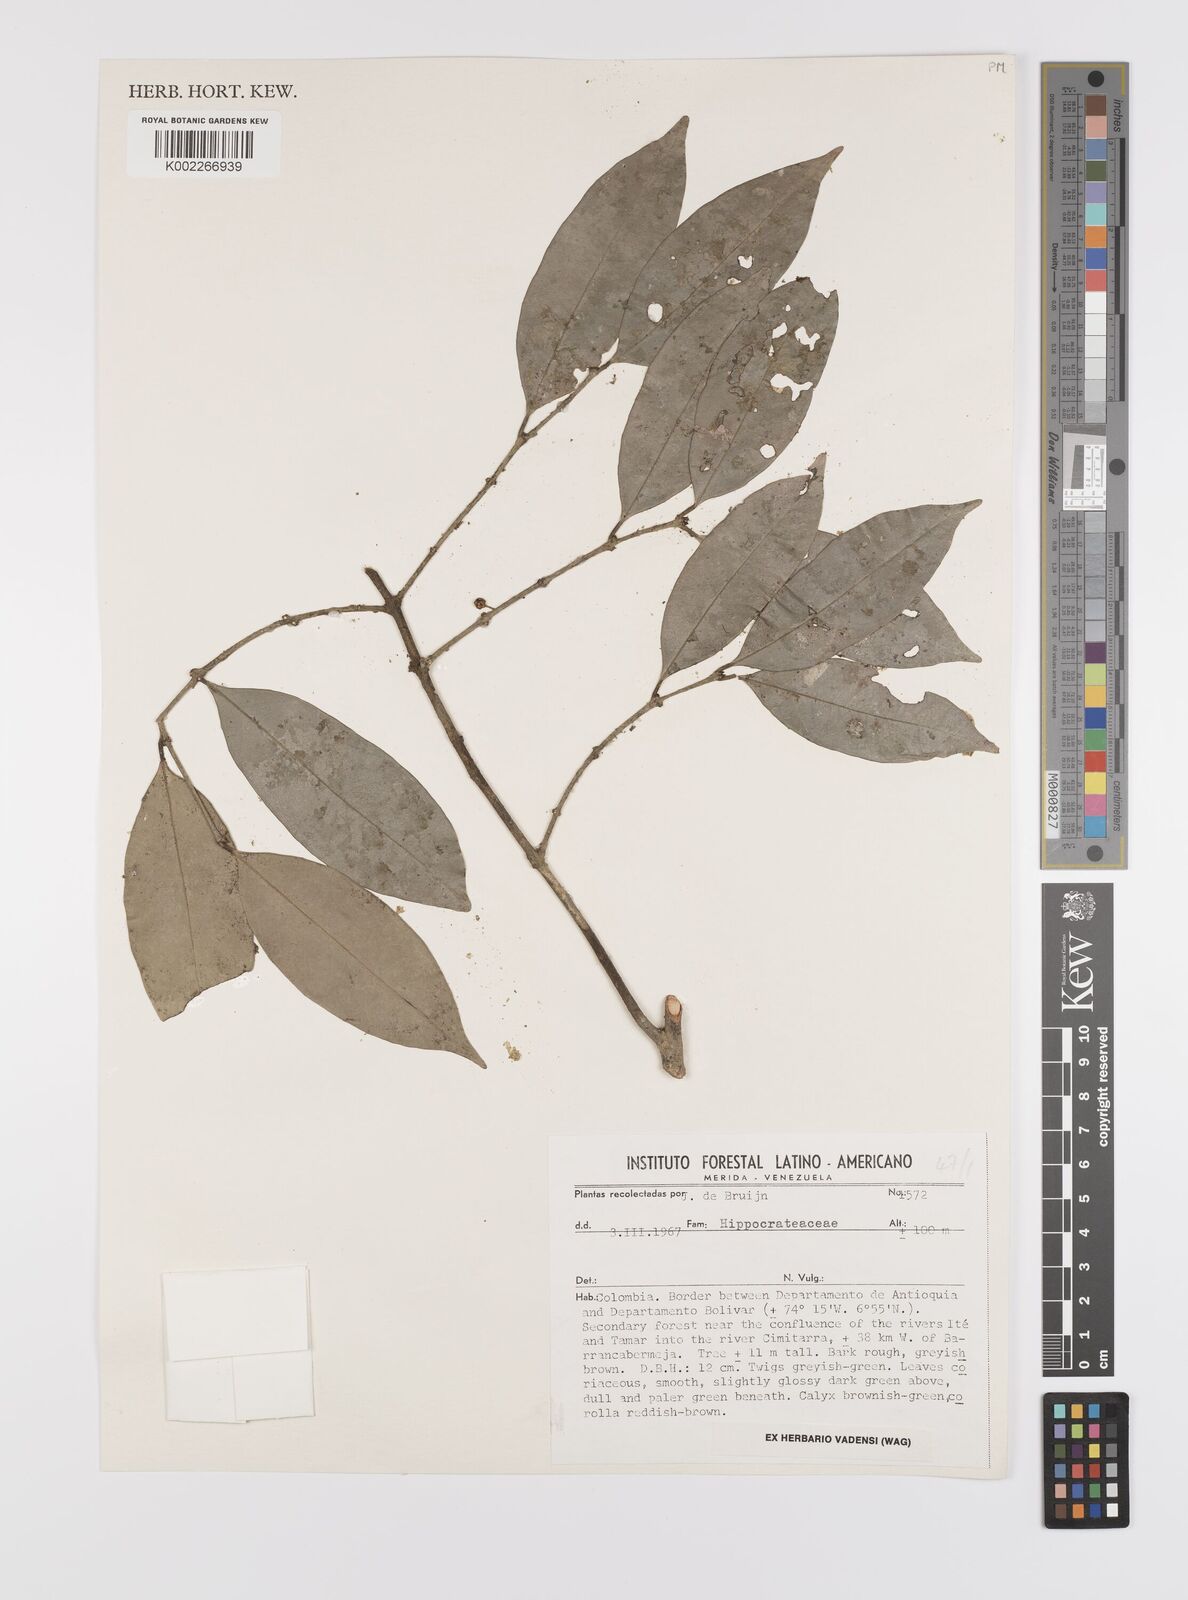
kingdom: Plantae
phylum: Tracheophyta
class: Magnoliopsida
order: Celastrales
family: Celastraceae
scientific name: Celastraceae
